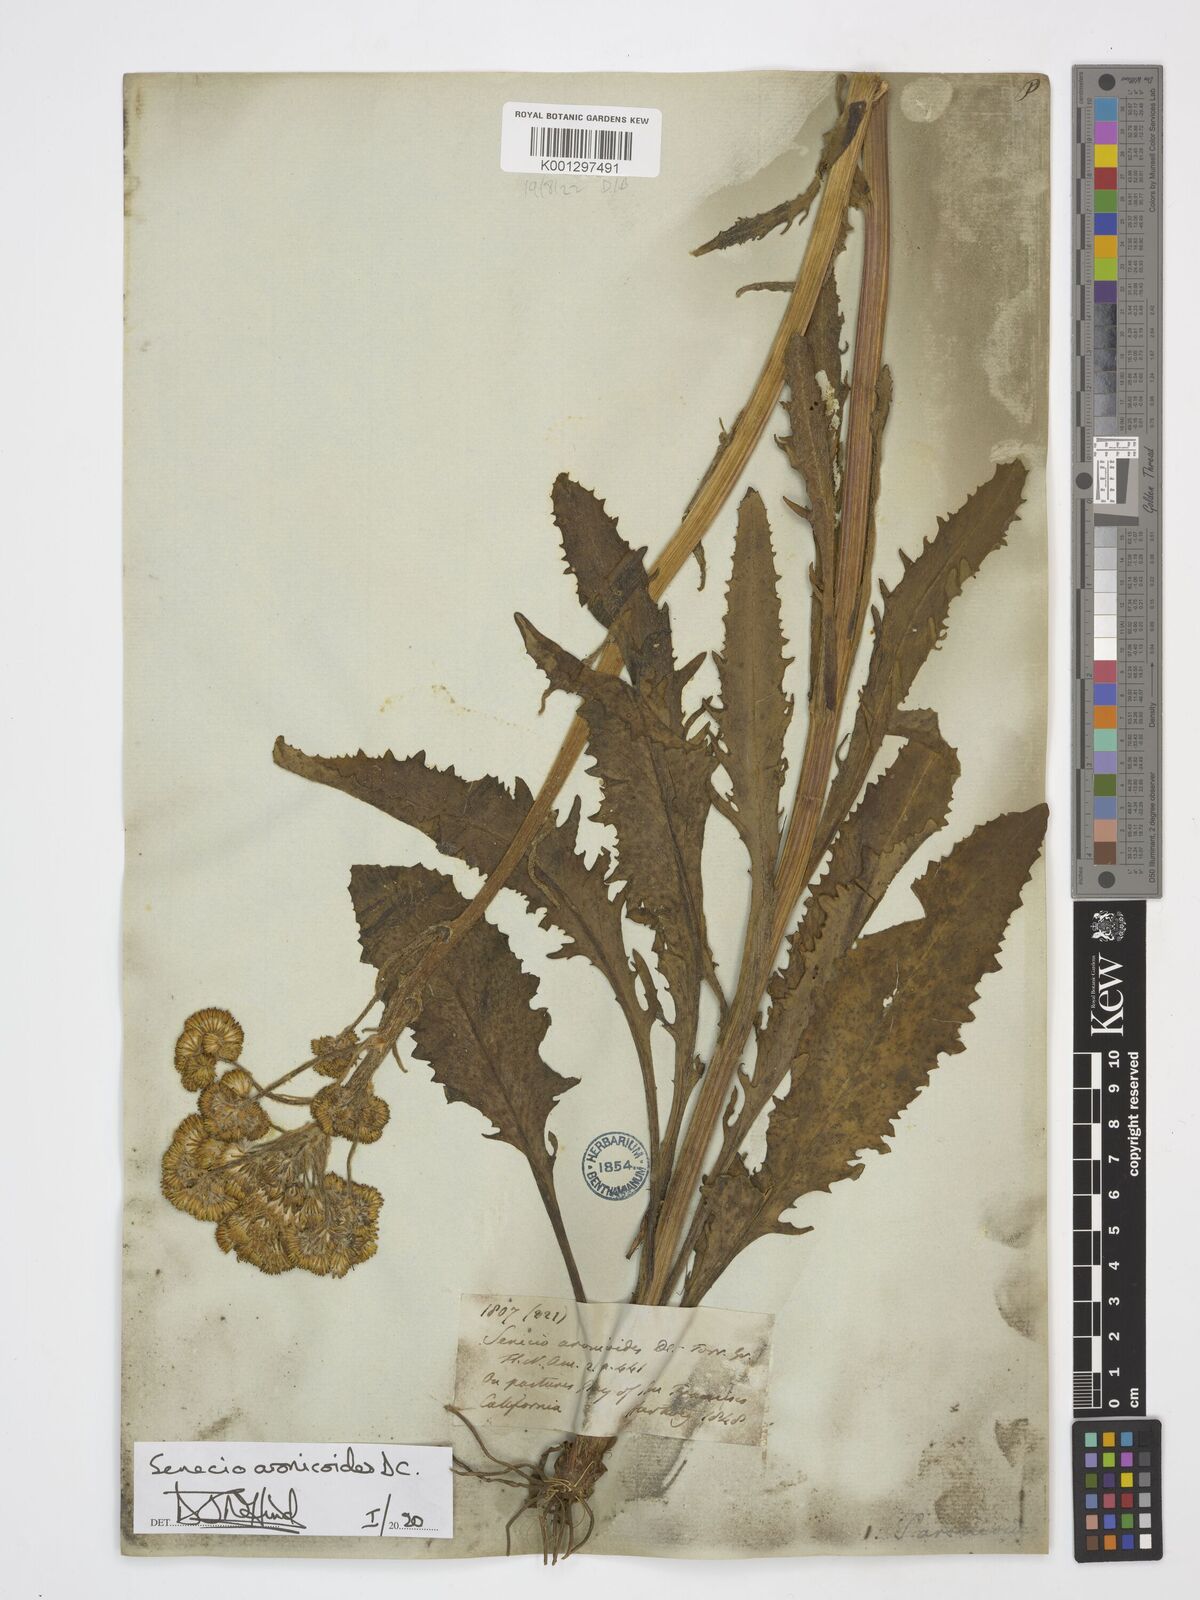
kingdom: Plantae
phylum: Tracheophyta
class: Magnoliopsida
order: Asterales
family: Asteraceae
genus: Senecio
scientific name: Senecio aronicoides
